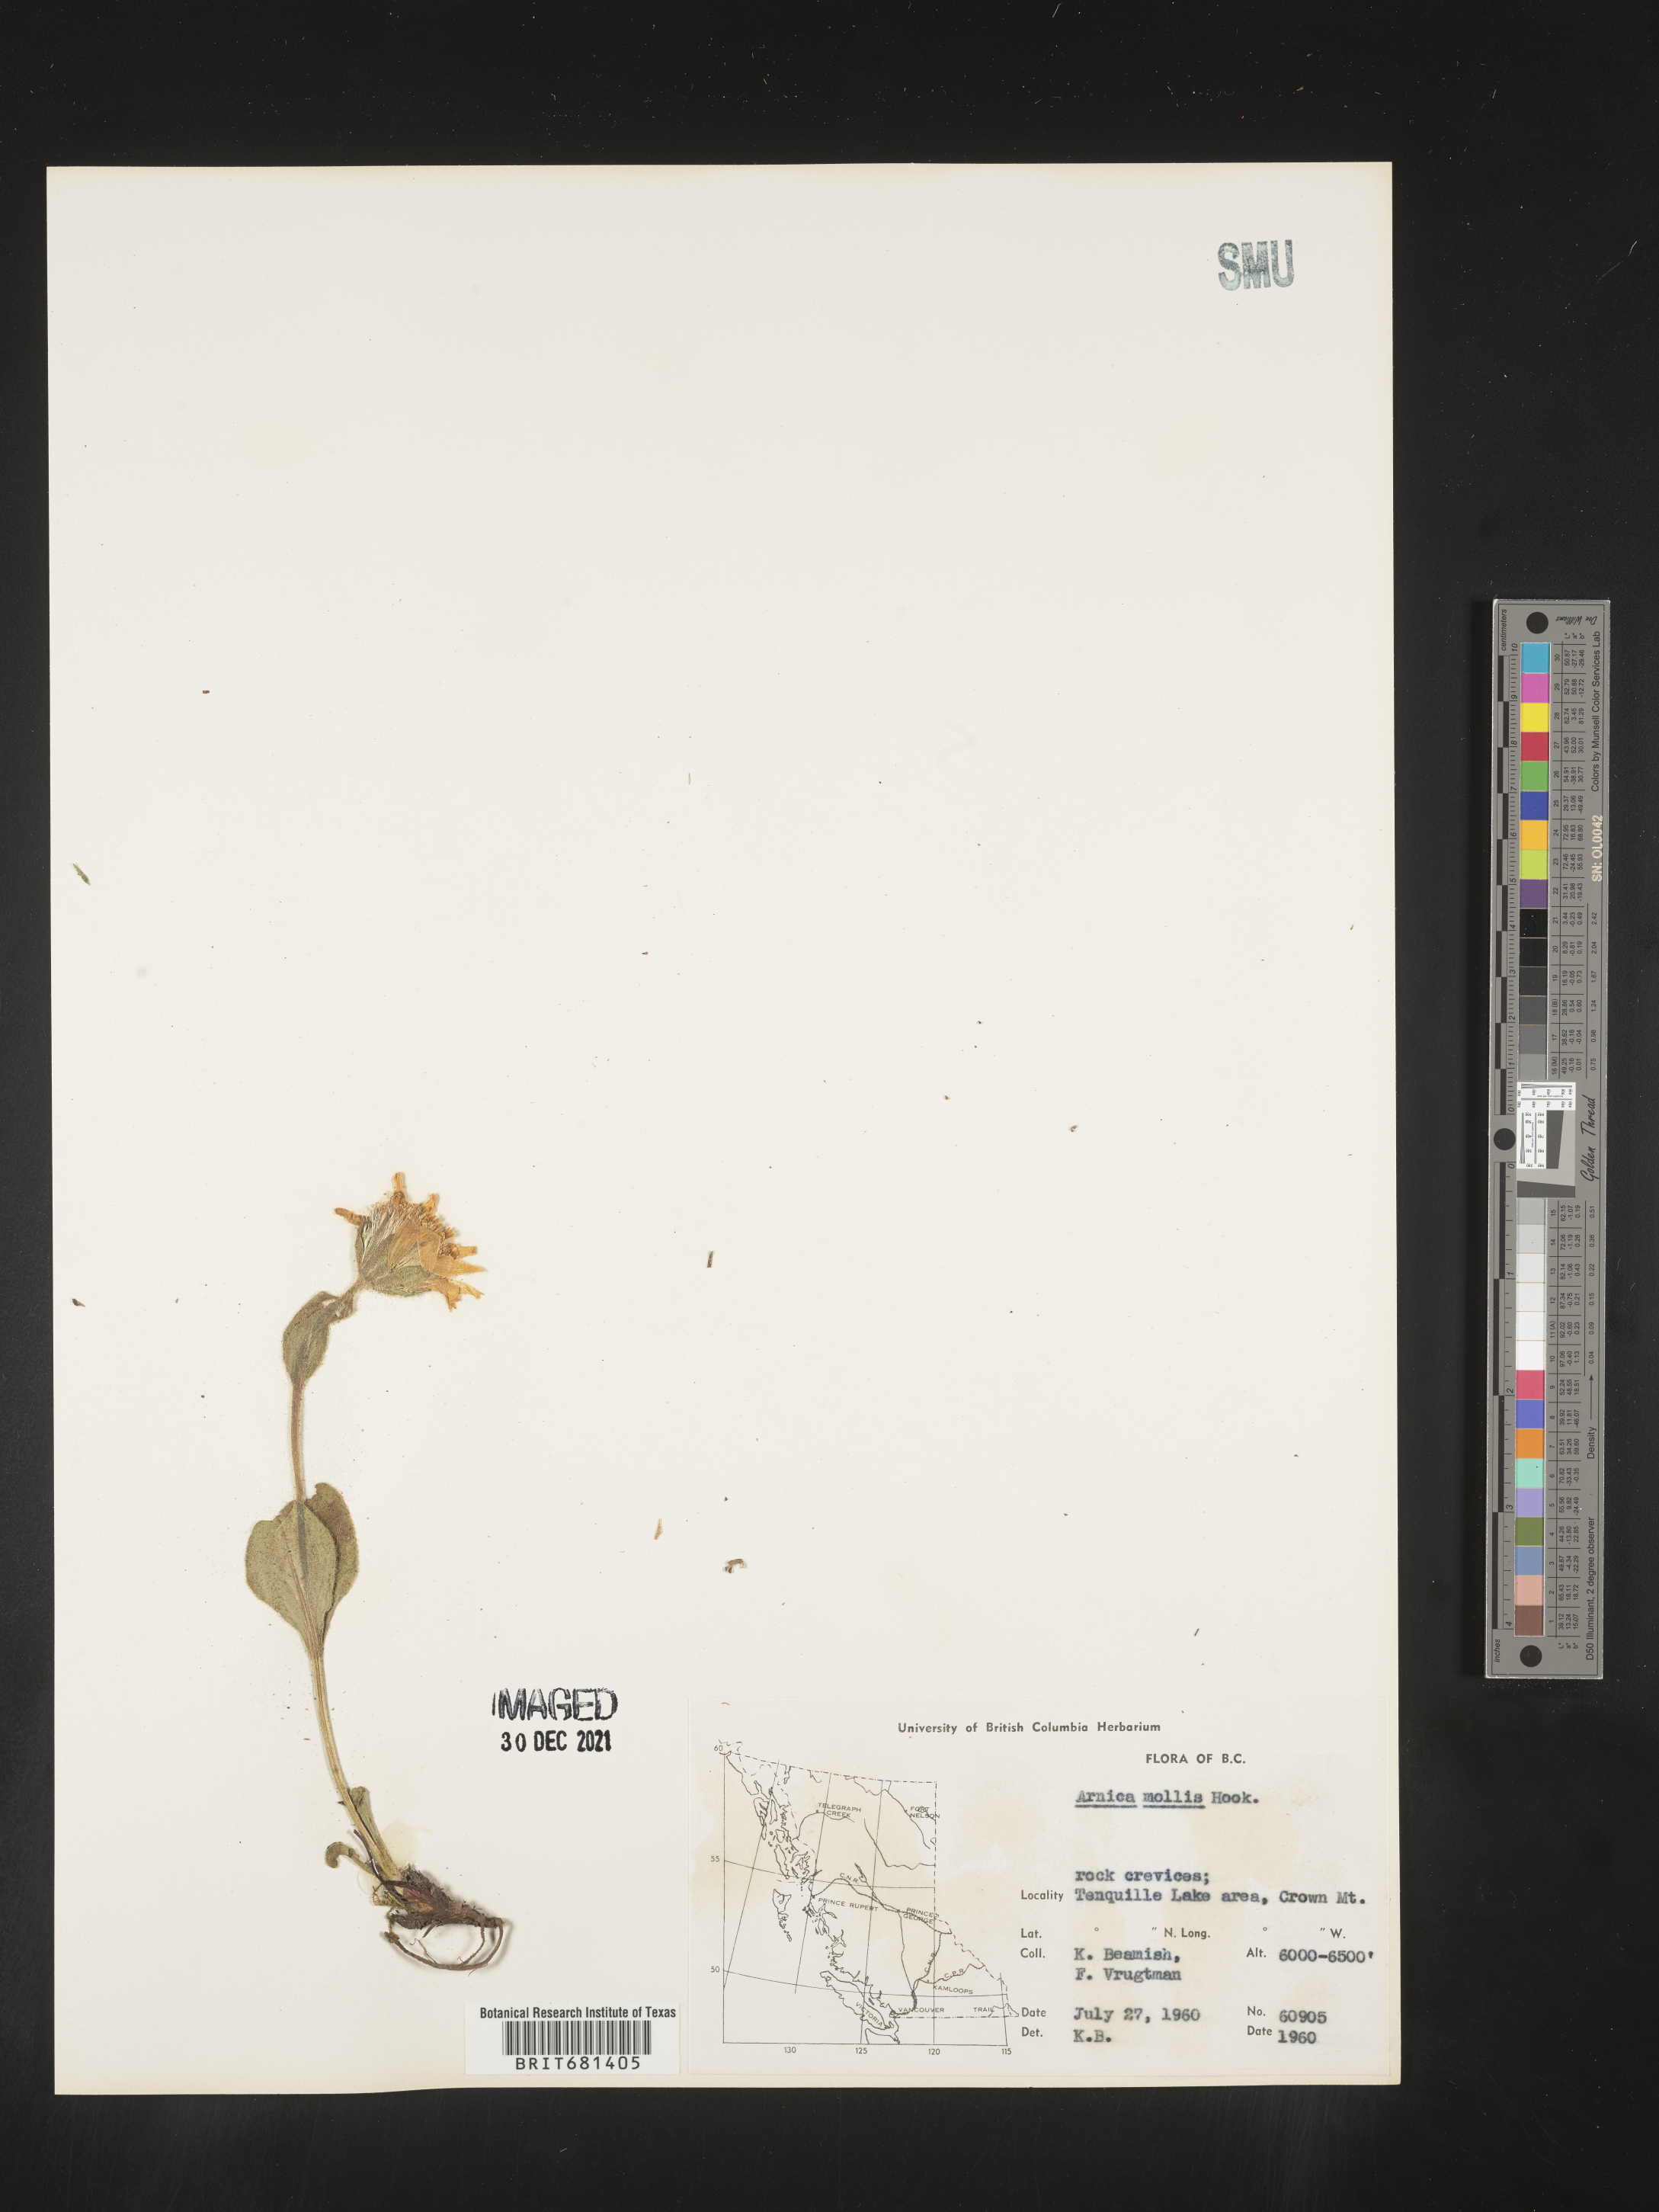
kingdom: Plantae
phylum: Tracheophyta
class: Magnoliopsida
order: Asterales
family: Asteraceae
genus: Arnica
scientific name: Arnica mollis
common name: Hairy arnica
